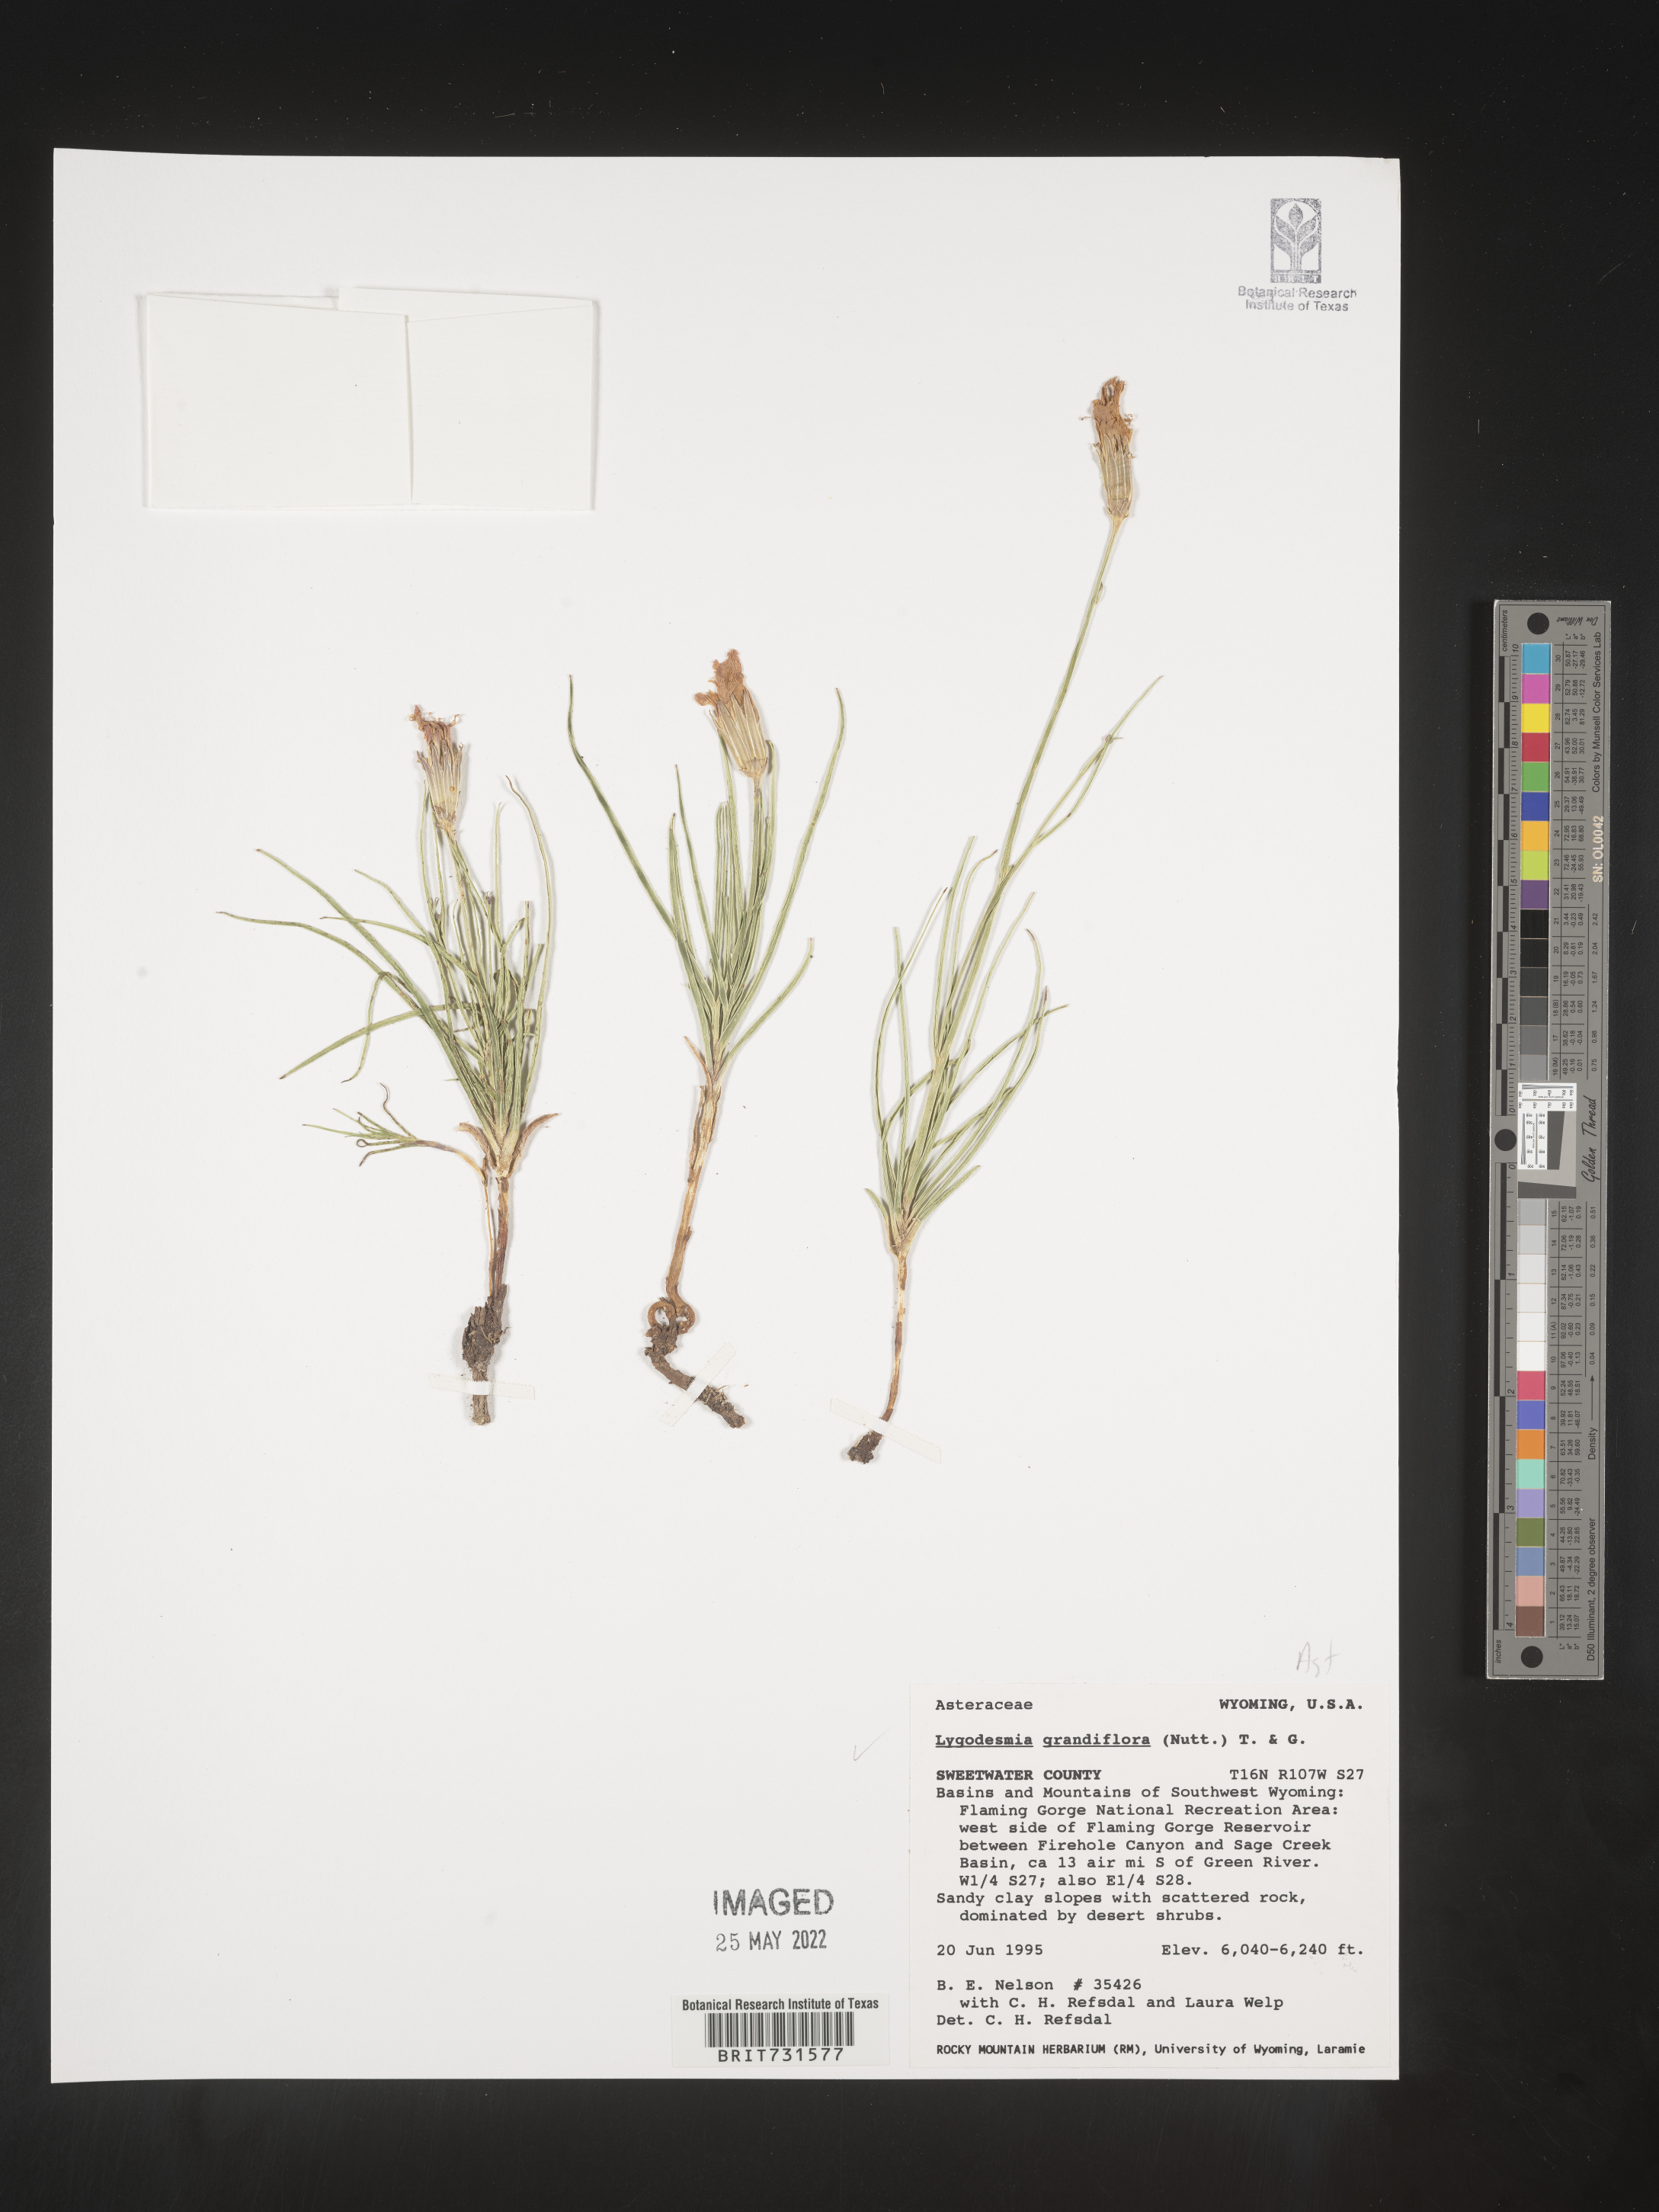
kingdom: Plantae
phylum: Tracheophyta
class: Magnoliopsida
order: Asterales
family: Asteraceae
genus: Lygodesmia
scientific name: Lygodesmia grandiflora
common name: Showy rush-pink
